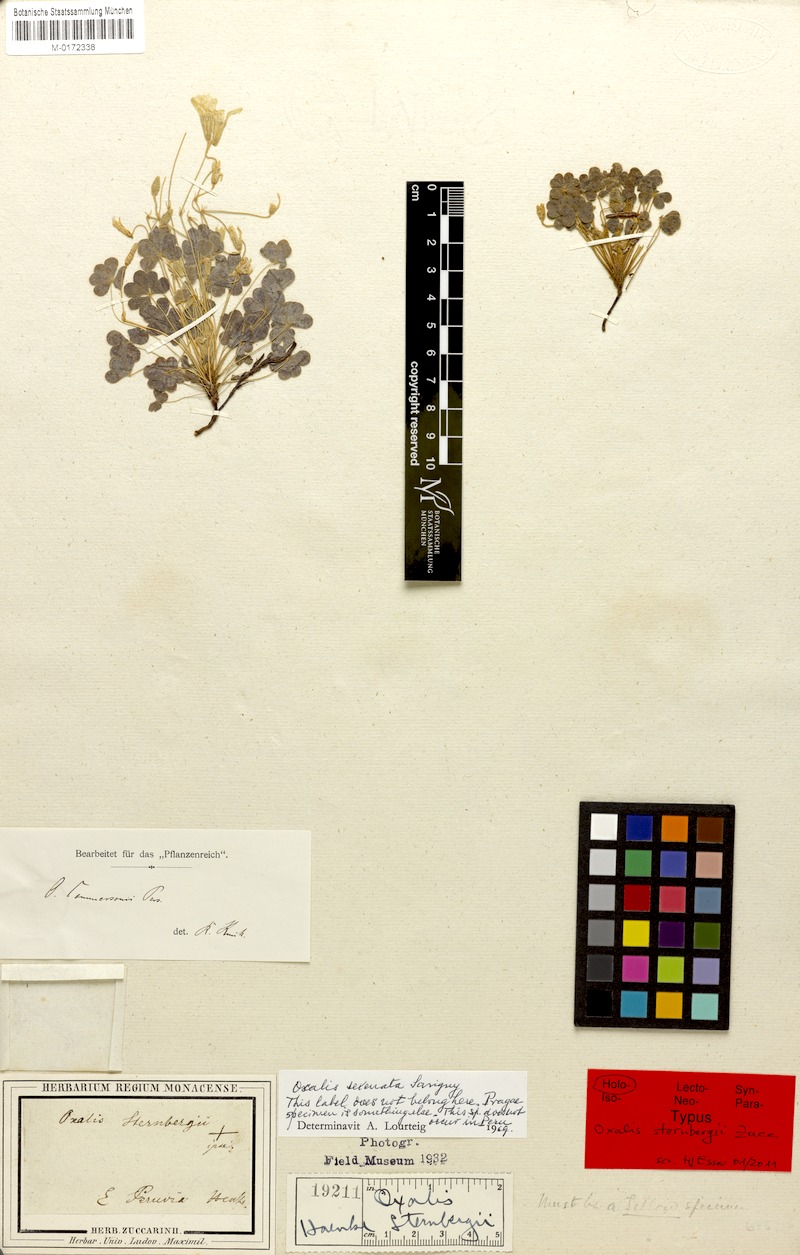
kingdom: Plantae
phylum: Tracheophyta
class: Magnoliopsida
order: Oxalidales
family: Oxalidaceae
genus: Oxalis
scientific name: Oxalis conorrhiza
